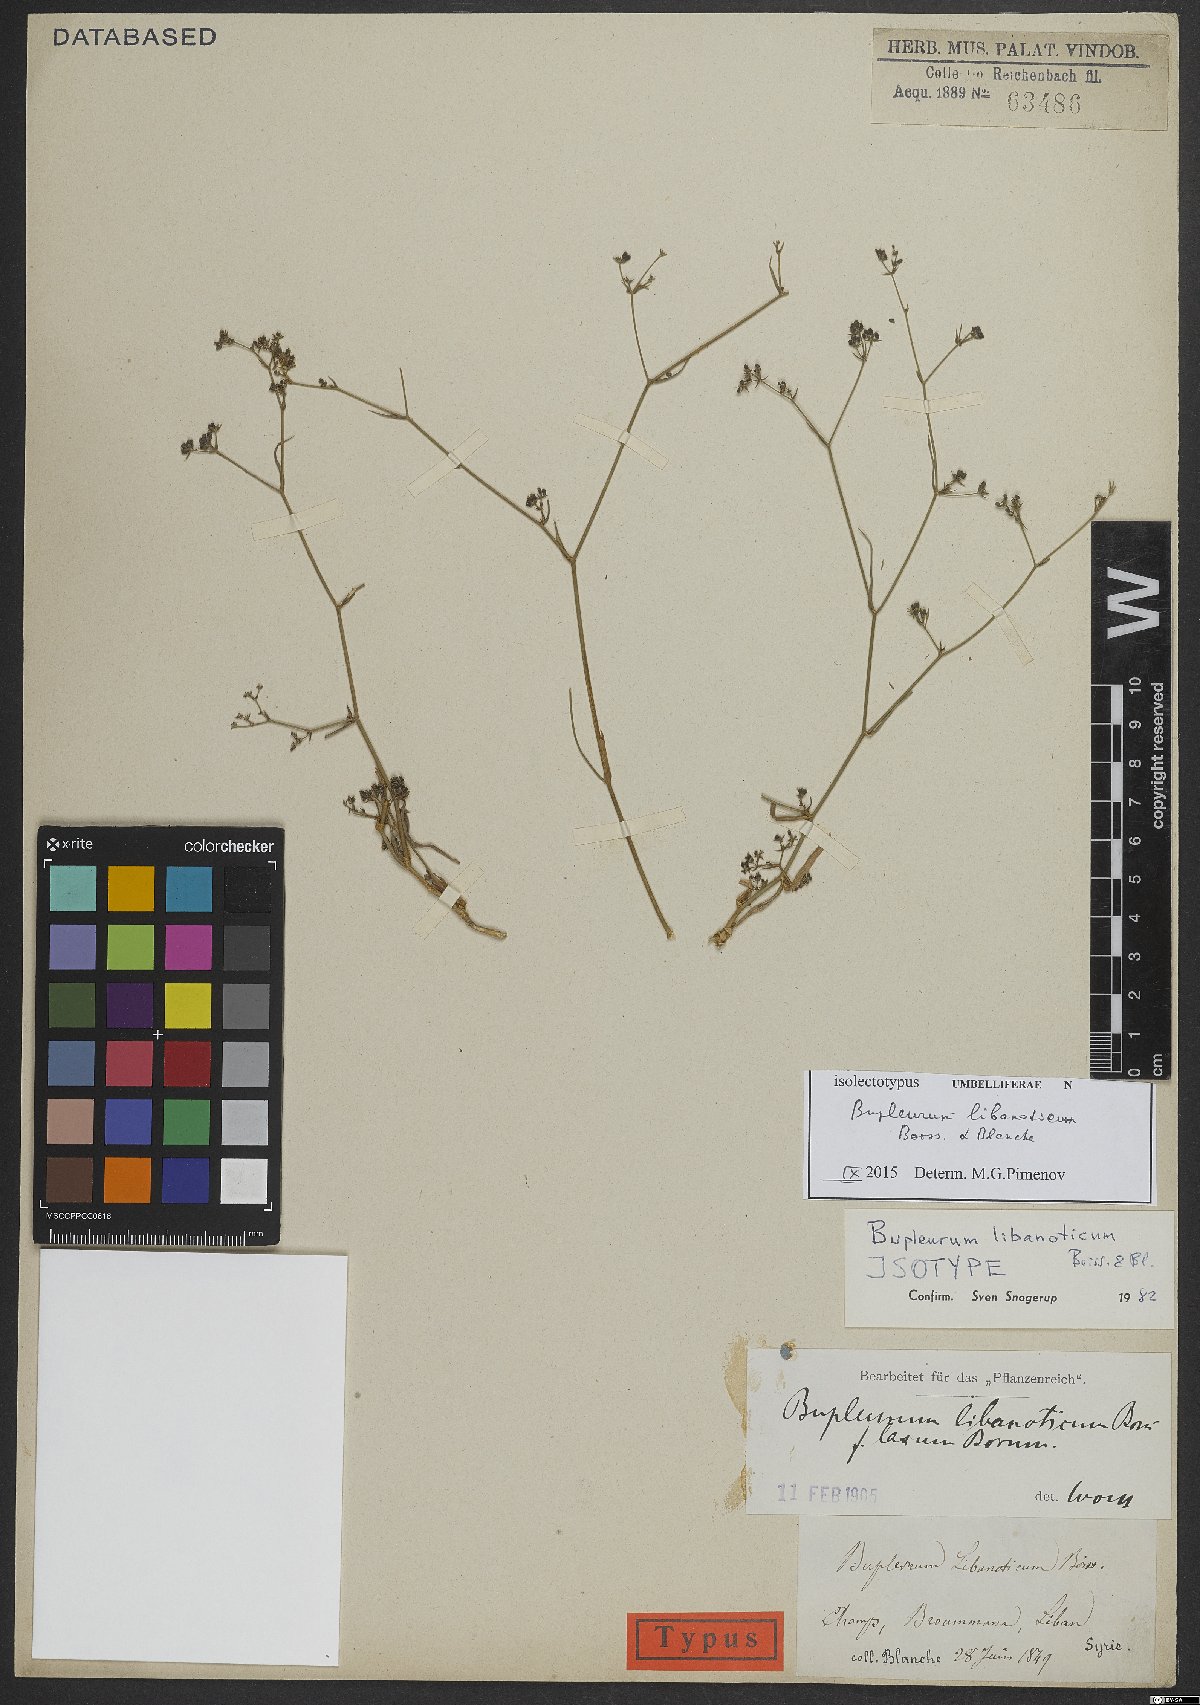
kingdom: Plantae
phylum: Tracheophyta
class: Magnoliopsida
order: Apiales
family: Apiaceae
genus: Bupleurum
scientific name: Bupleurum libanoticum
